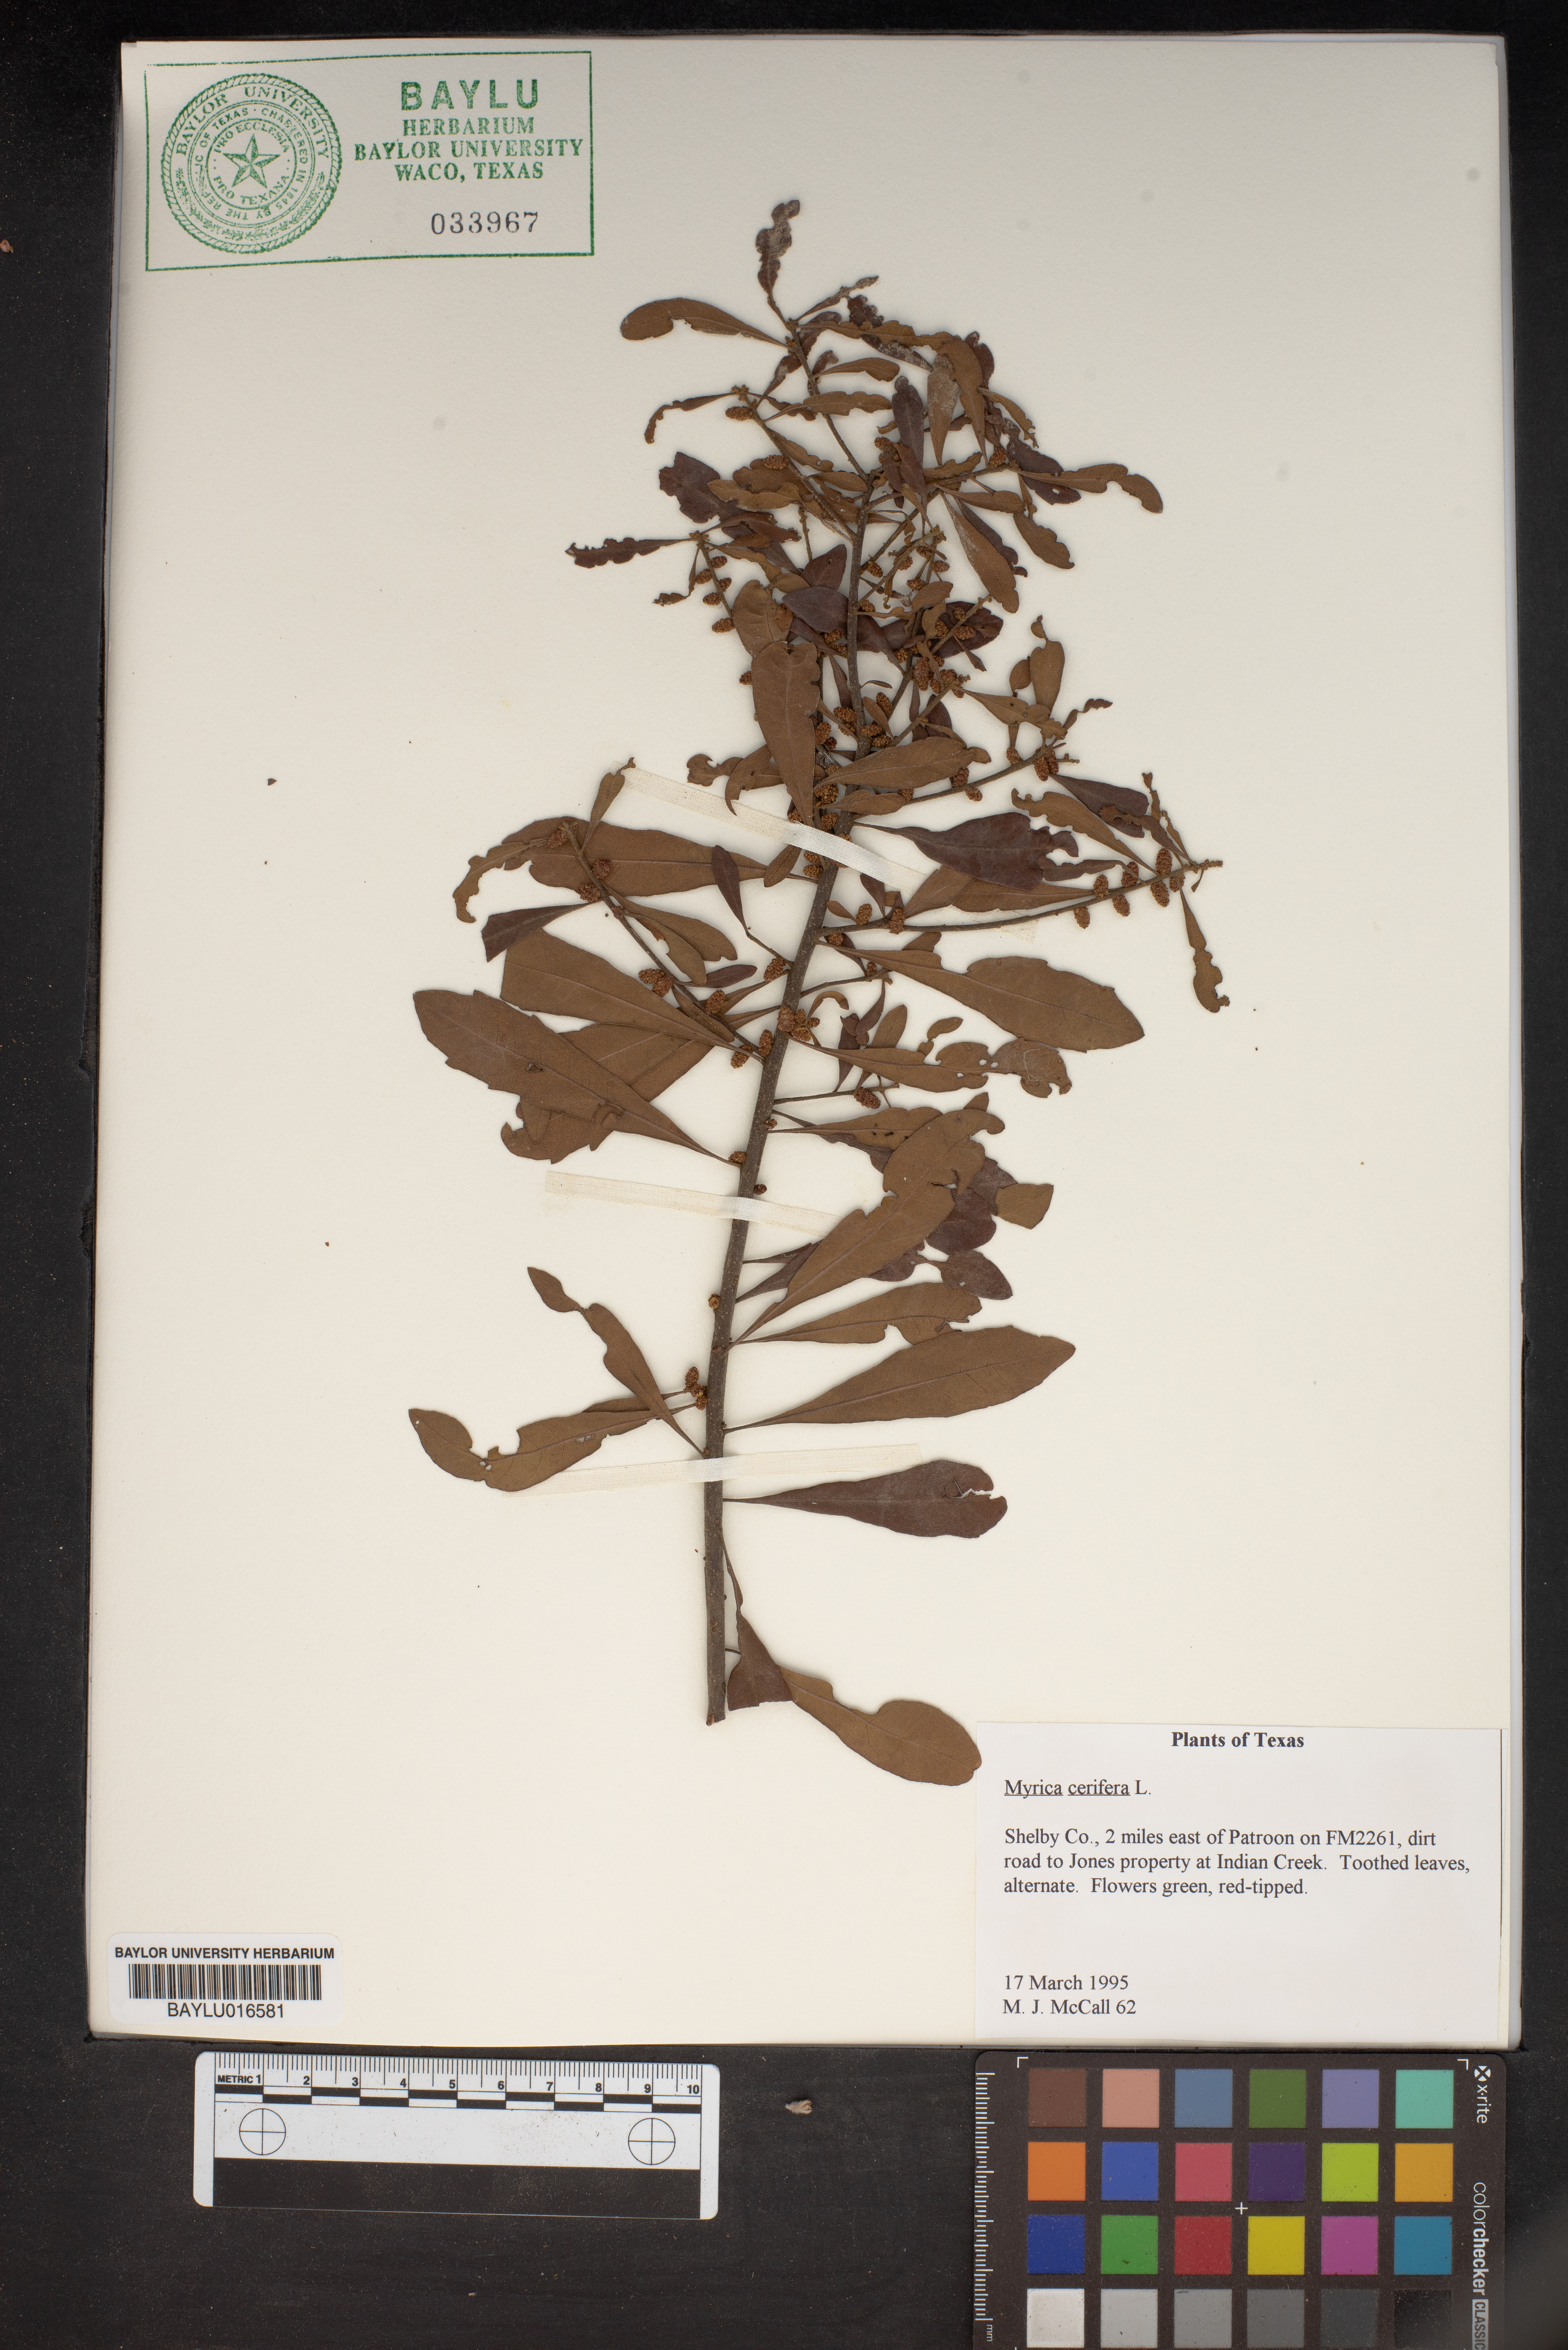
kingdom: Plantae
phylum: Tracheophyta
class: Magnoliopsida
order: Fagales
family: Myricaceae
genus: Morella
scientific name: Morella cerifera
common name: Wax myrtle
